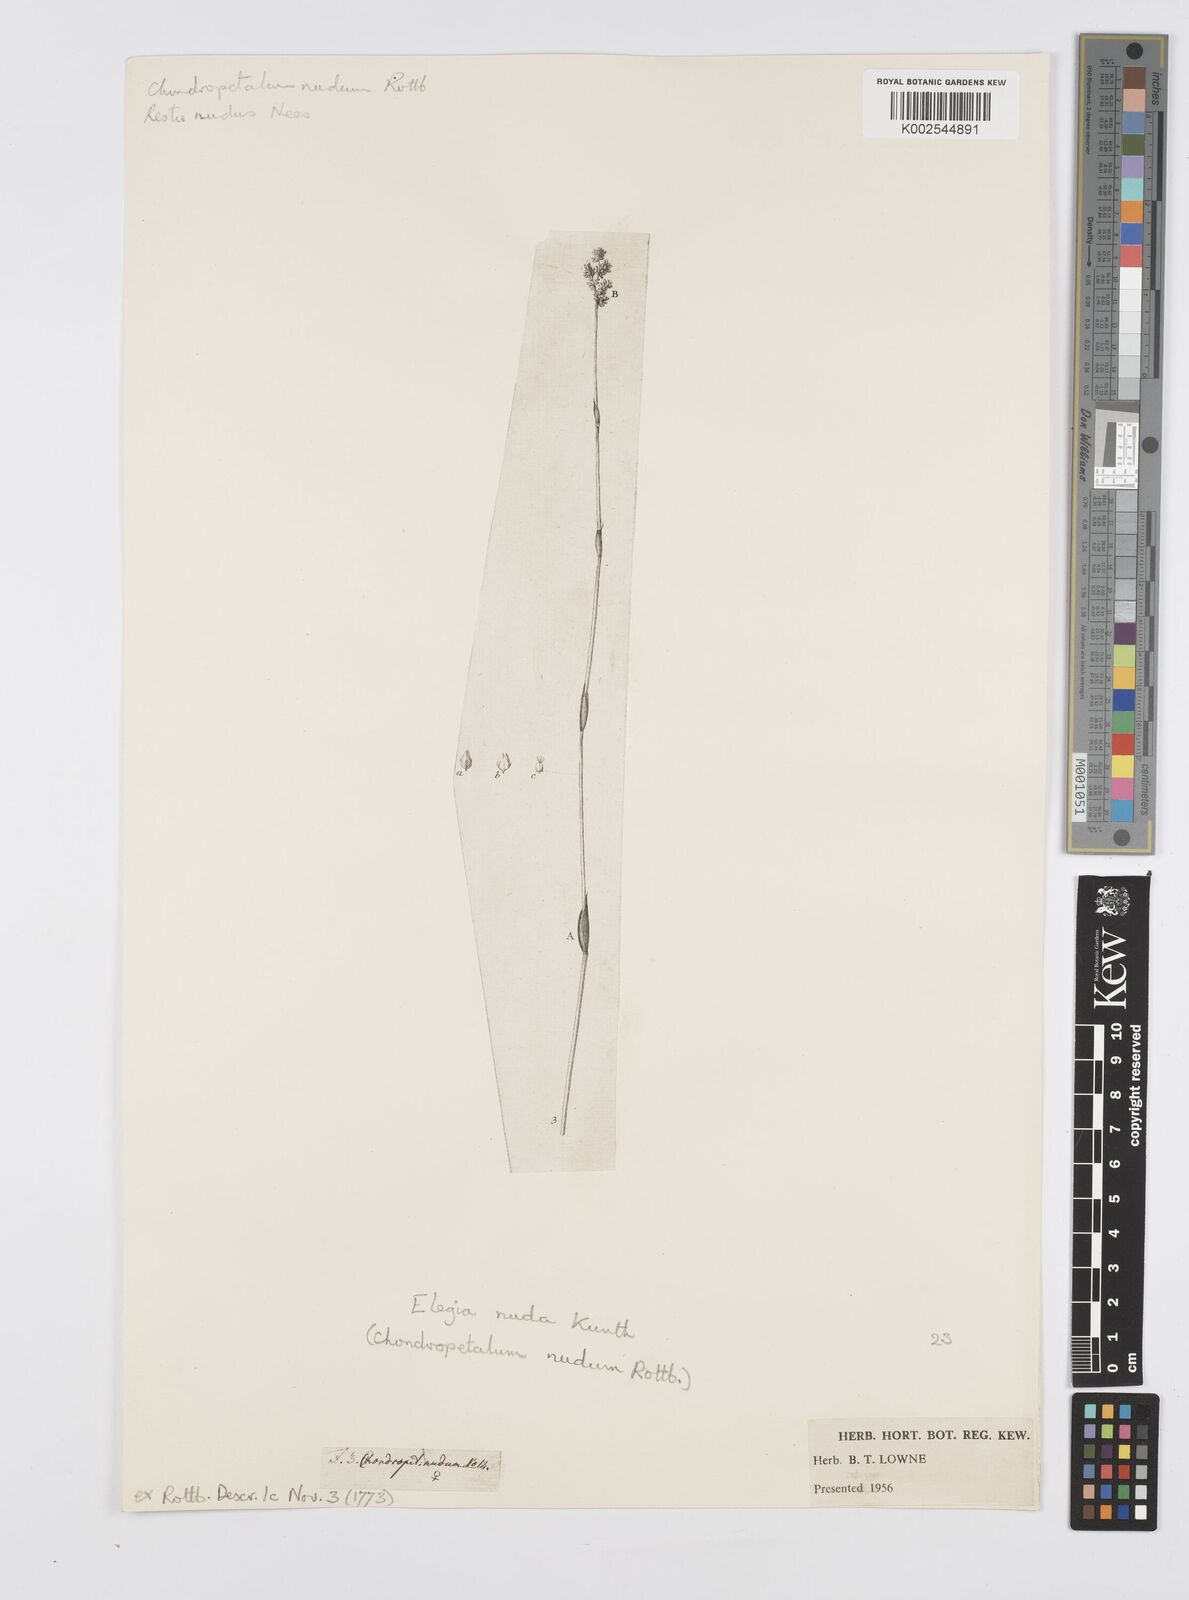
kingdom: Plantae
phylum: Tracheophyta
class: Liliopsida
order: Poales
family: Restionaceae
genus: Elegia
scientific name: Elegia nuda
